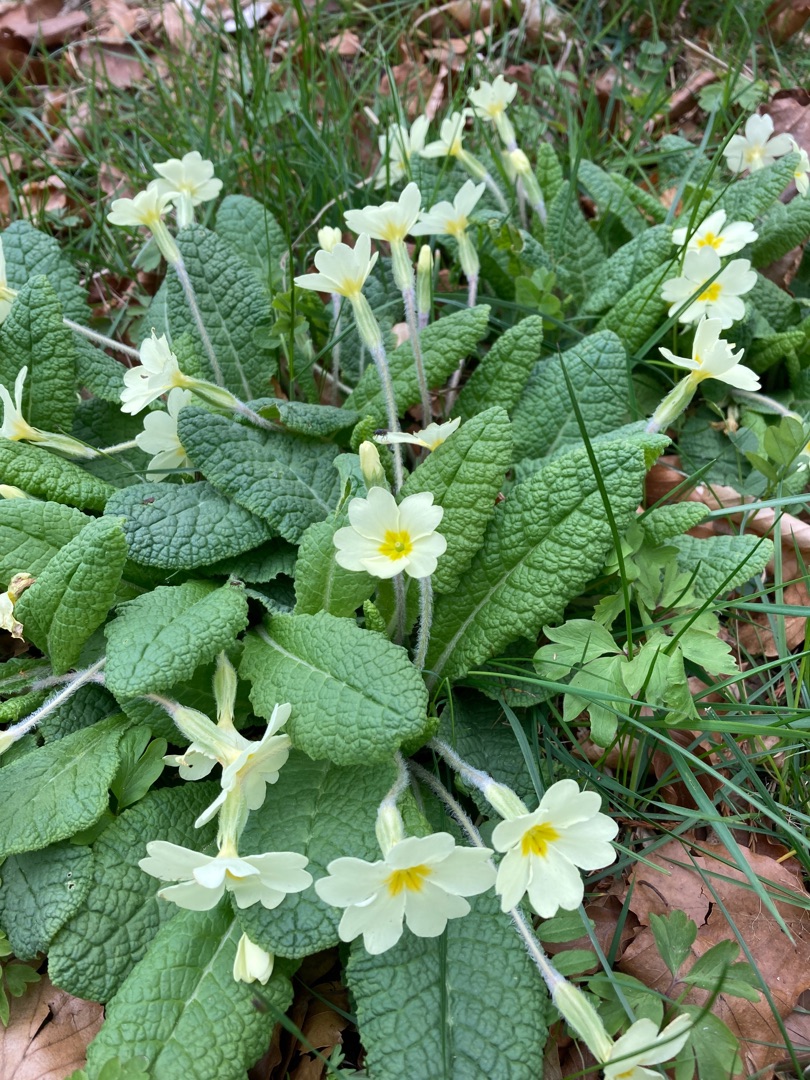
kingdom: Plantae
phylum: Tracheophyta
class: Magnoliopsida
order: Ericales
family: Primulaceae
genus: Primula
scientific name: Primula vulgaris
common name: Storblomstret kodriver
